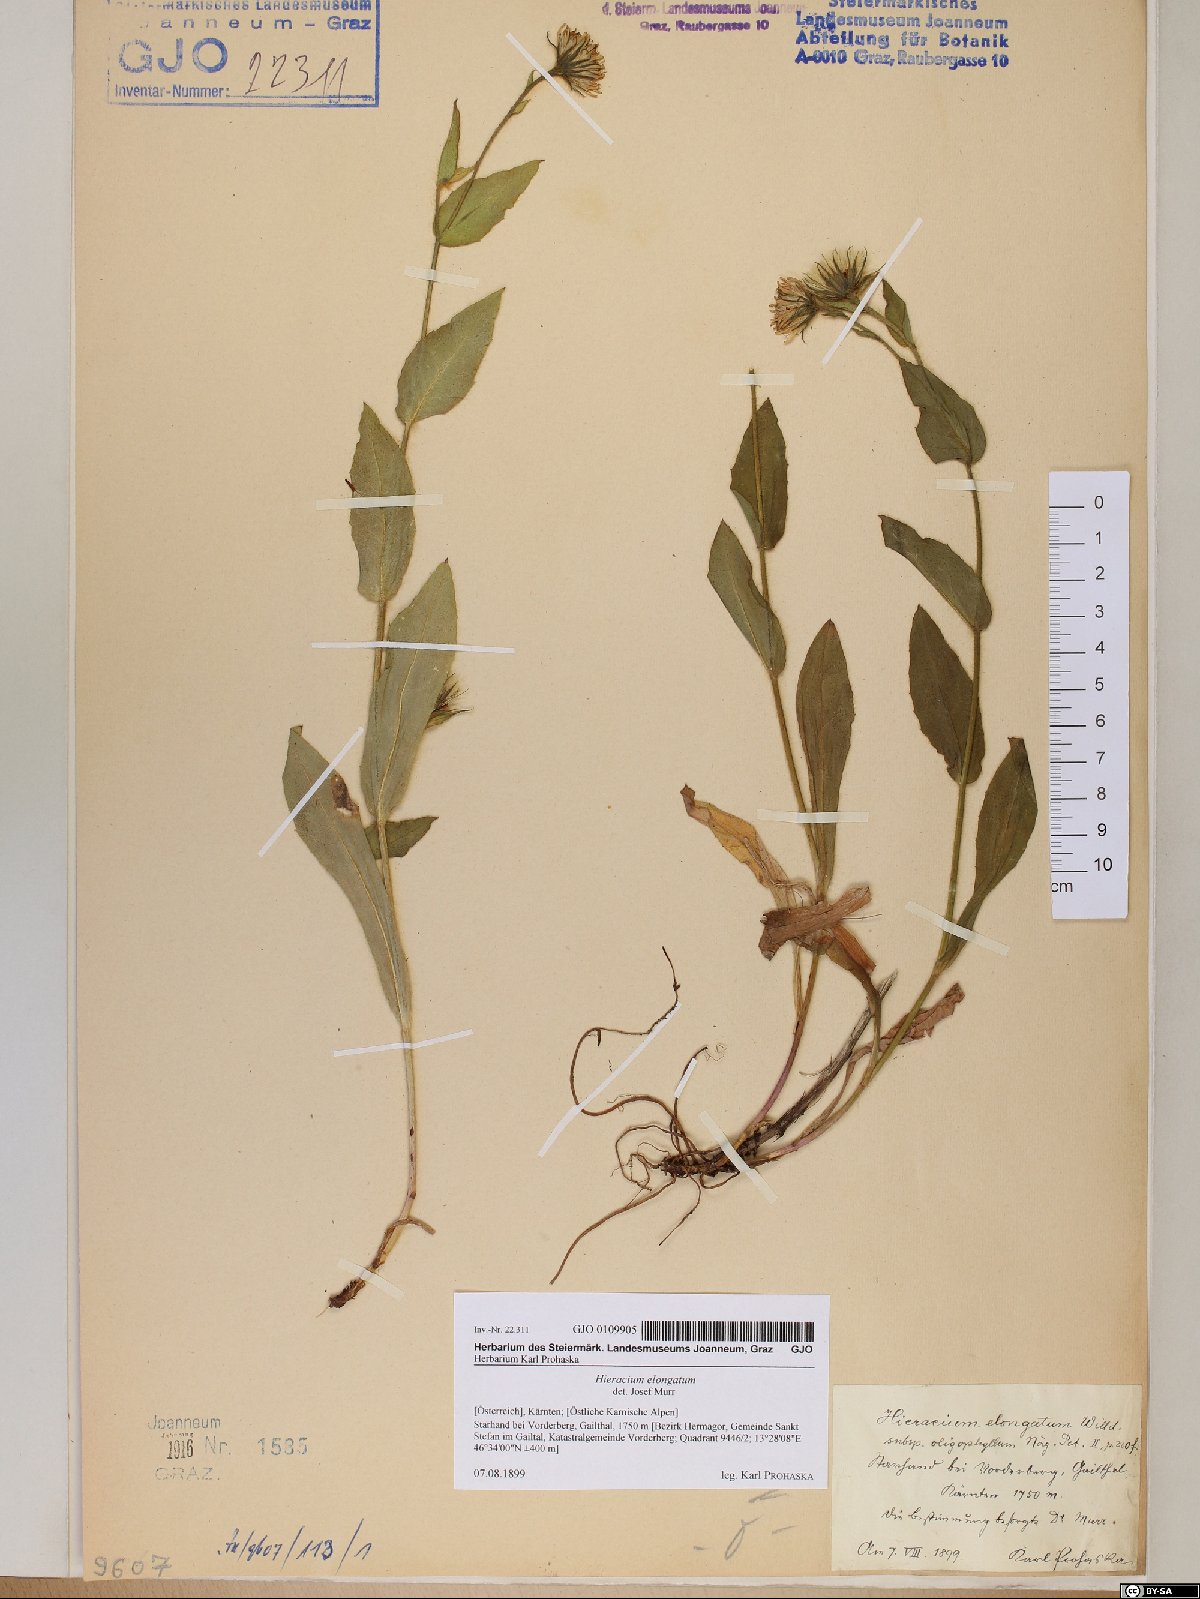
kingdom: Plantae
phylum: Tracheophyta
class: Magnoliopsida
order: Asterales
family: Asteraceae
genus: Hieracium
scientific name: Hieracium valdepilosum
